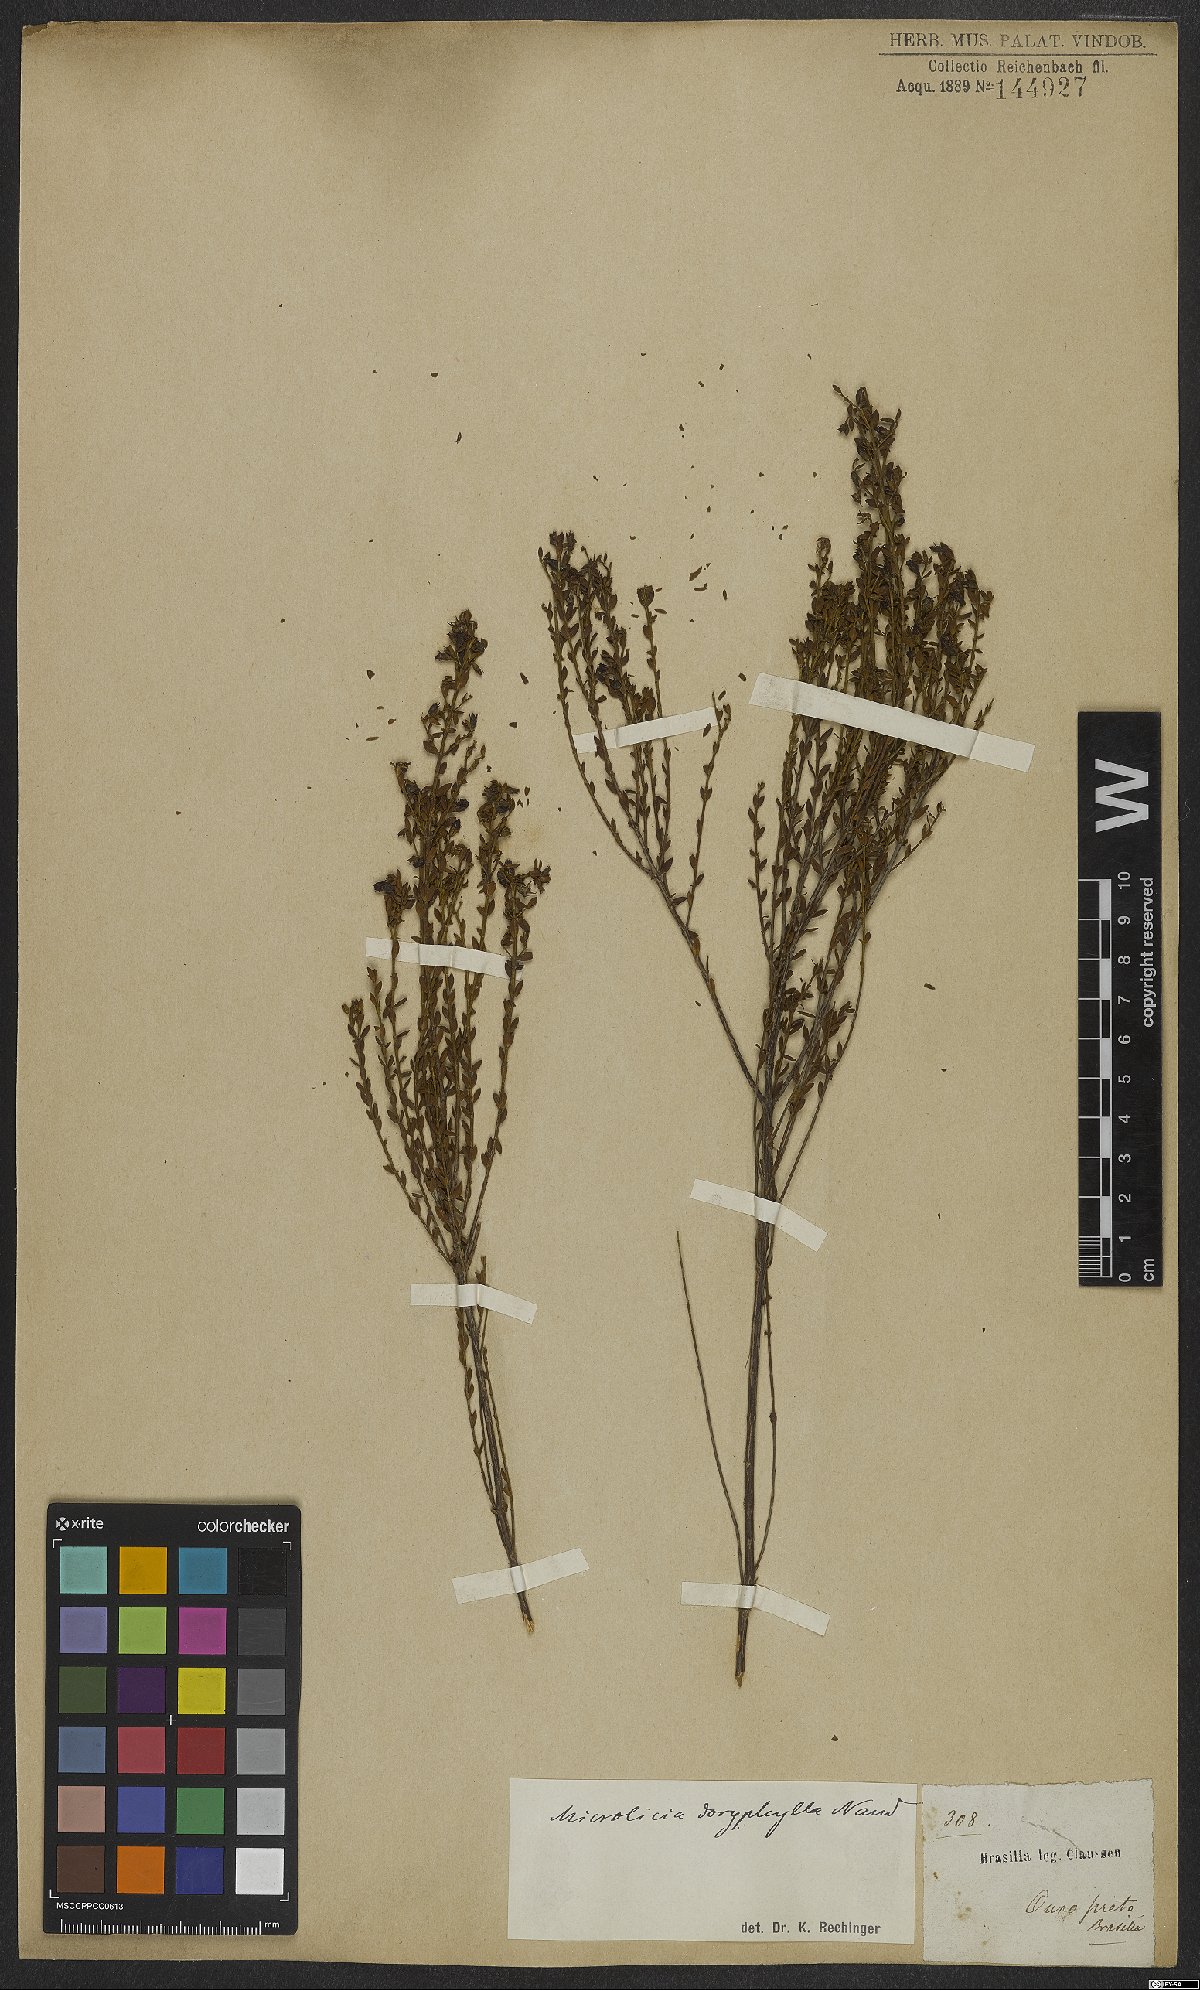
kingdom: Plantae
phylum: Tracheophyta
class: Magnoliopsida
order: Myrtales
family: Melastomataceae
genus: Microlicia
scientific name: Microlicia doryphylla
